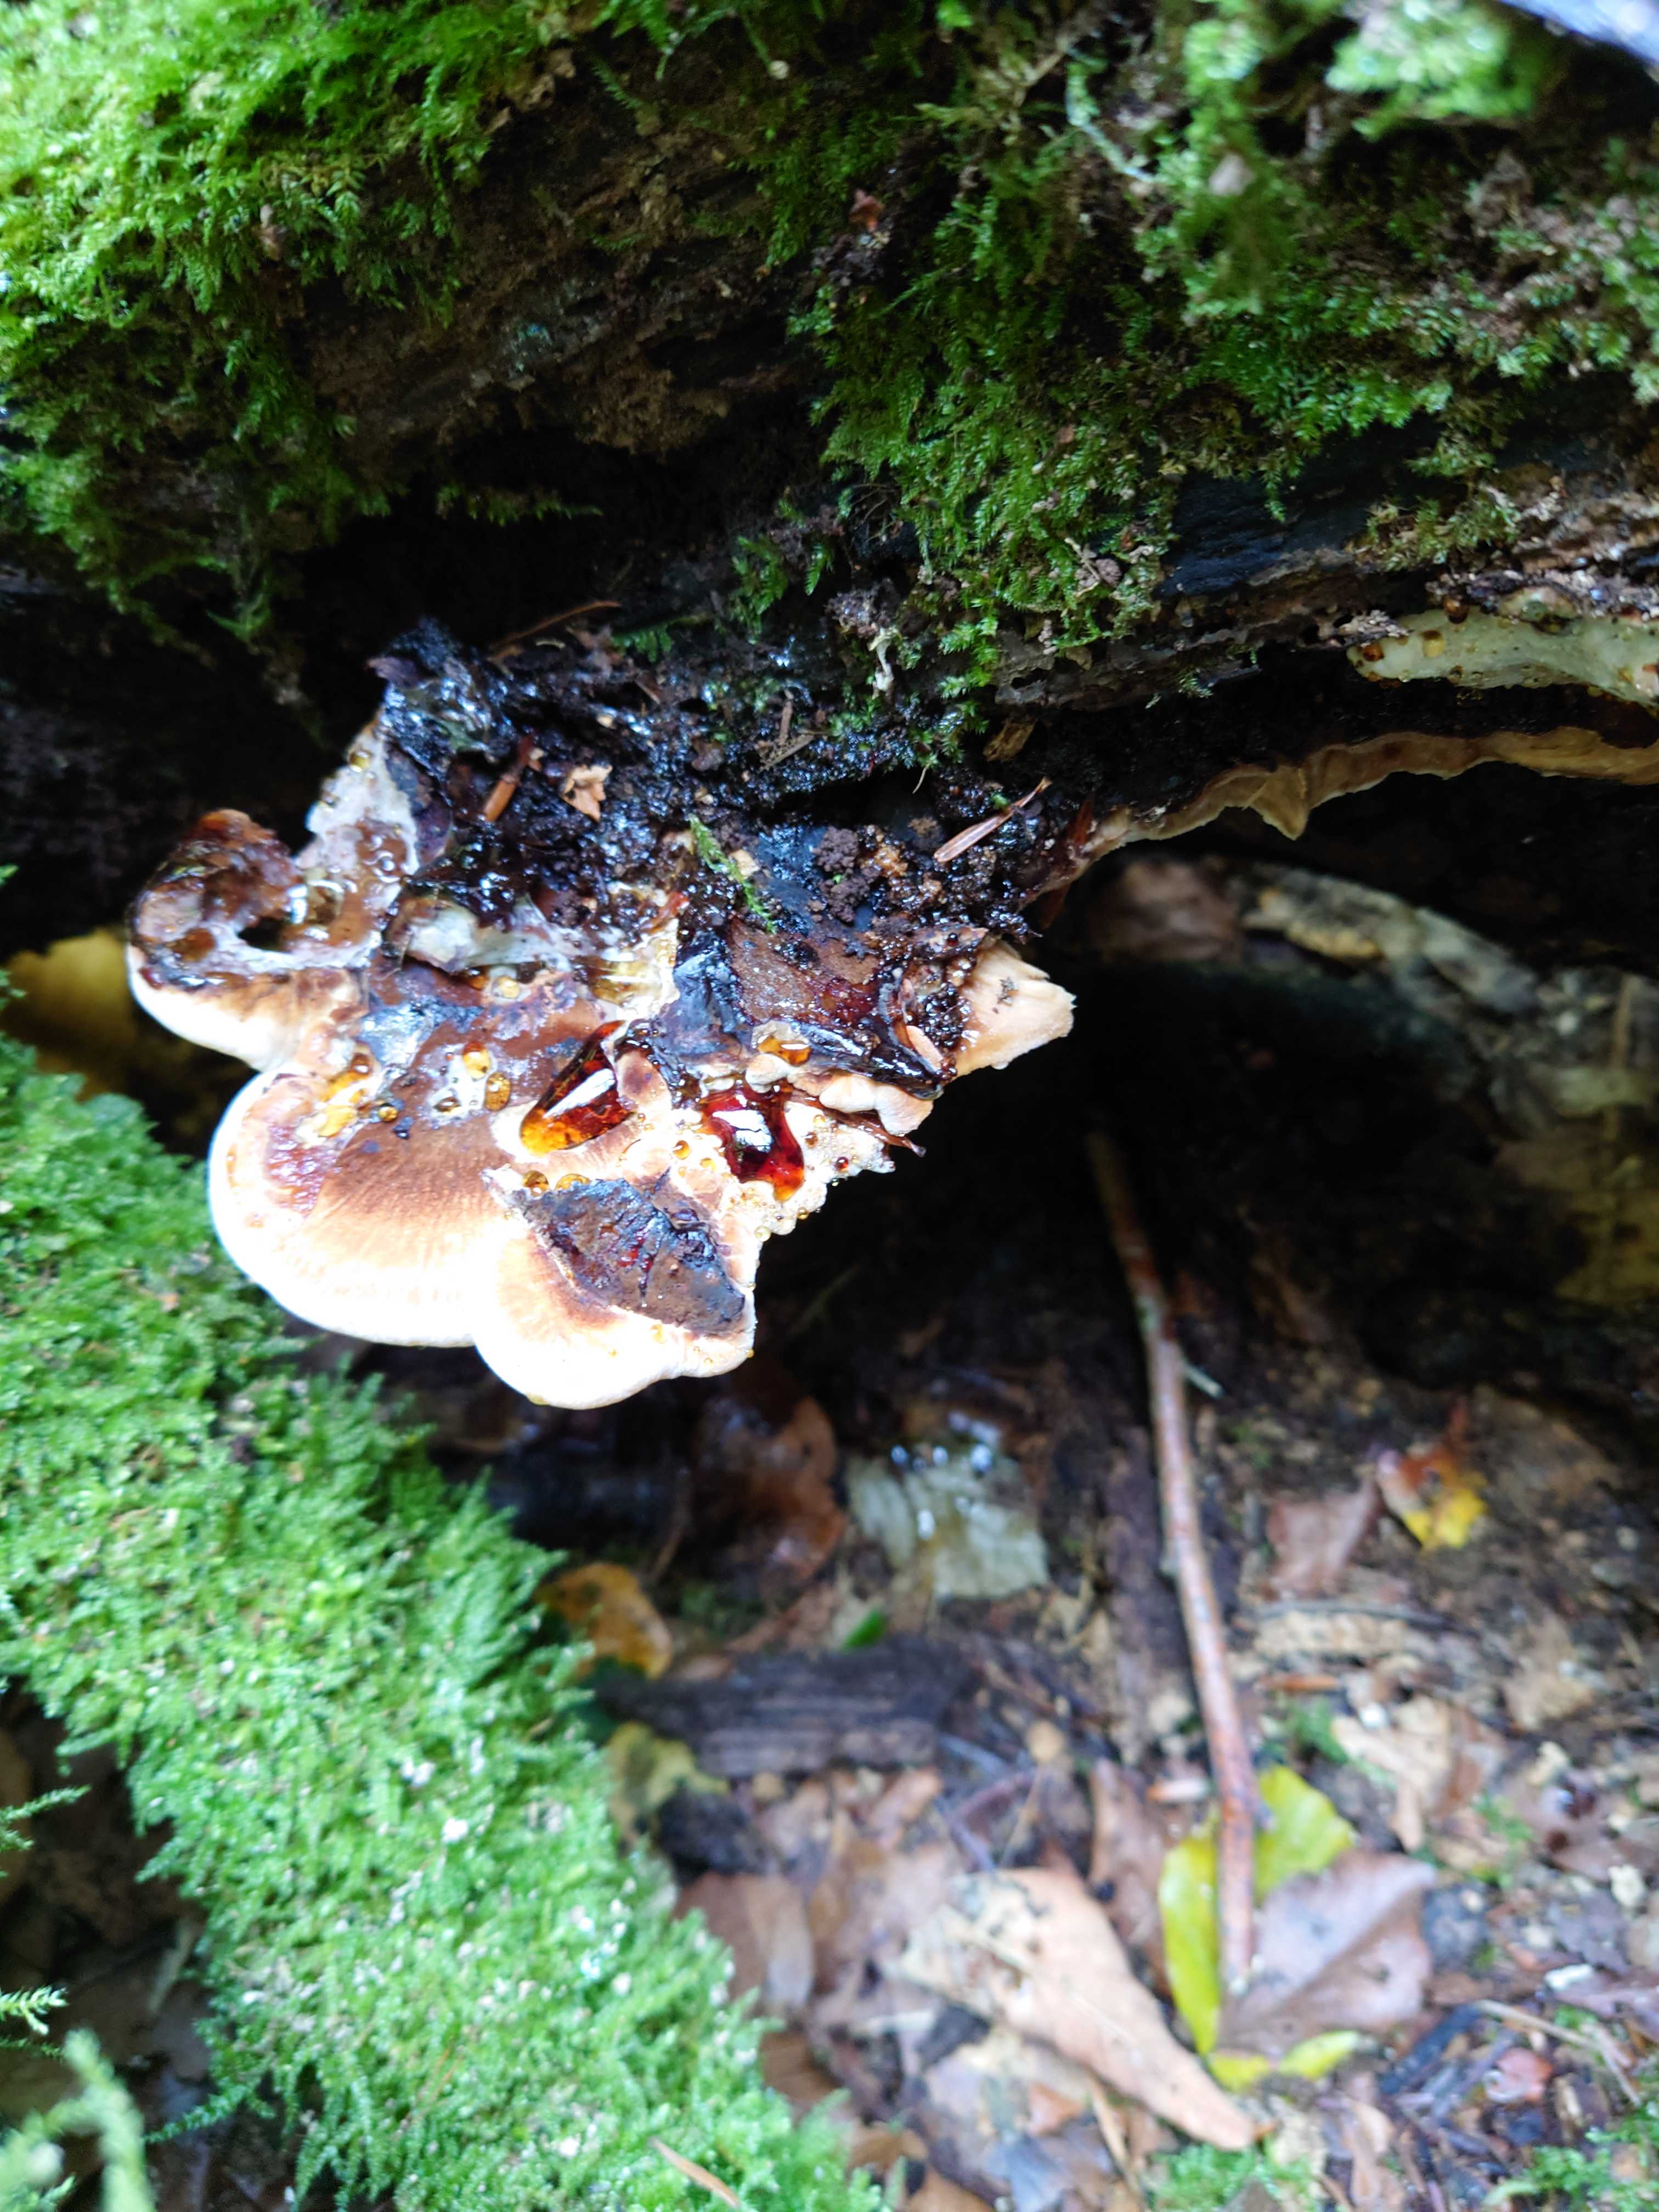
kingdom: Fungi
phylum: Basidiomycota
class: Agaricomycetes
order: Polyporales
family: Ischnodermataceae
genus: Ischnoderma
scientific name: Ischnoderma resinosum
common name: løv-tjæreporesvamp
